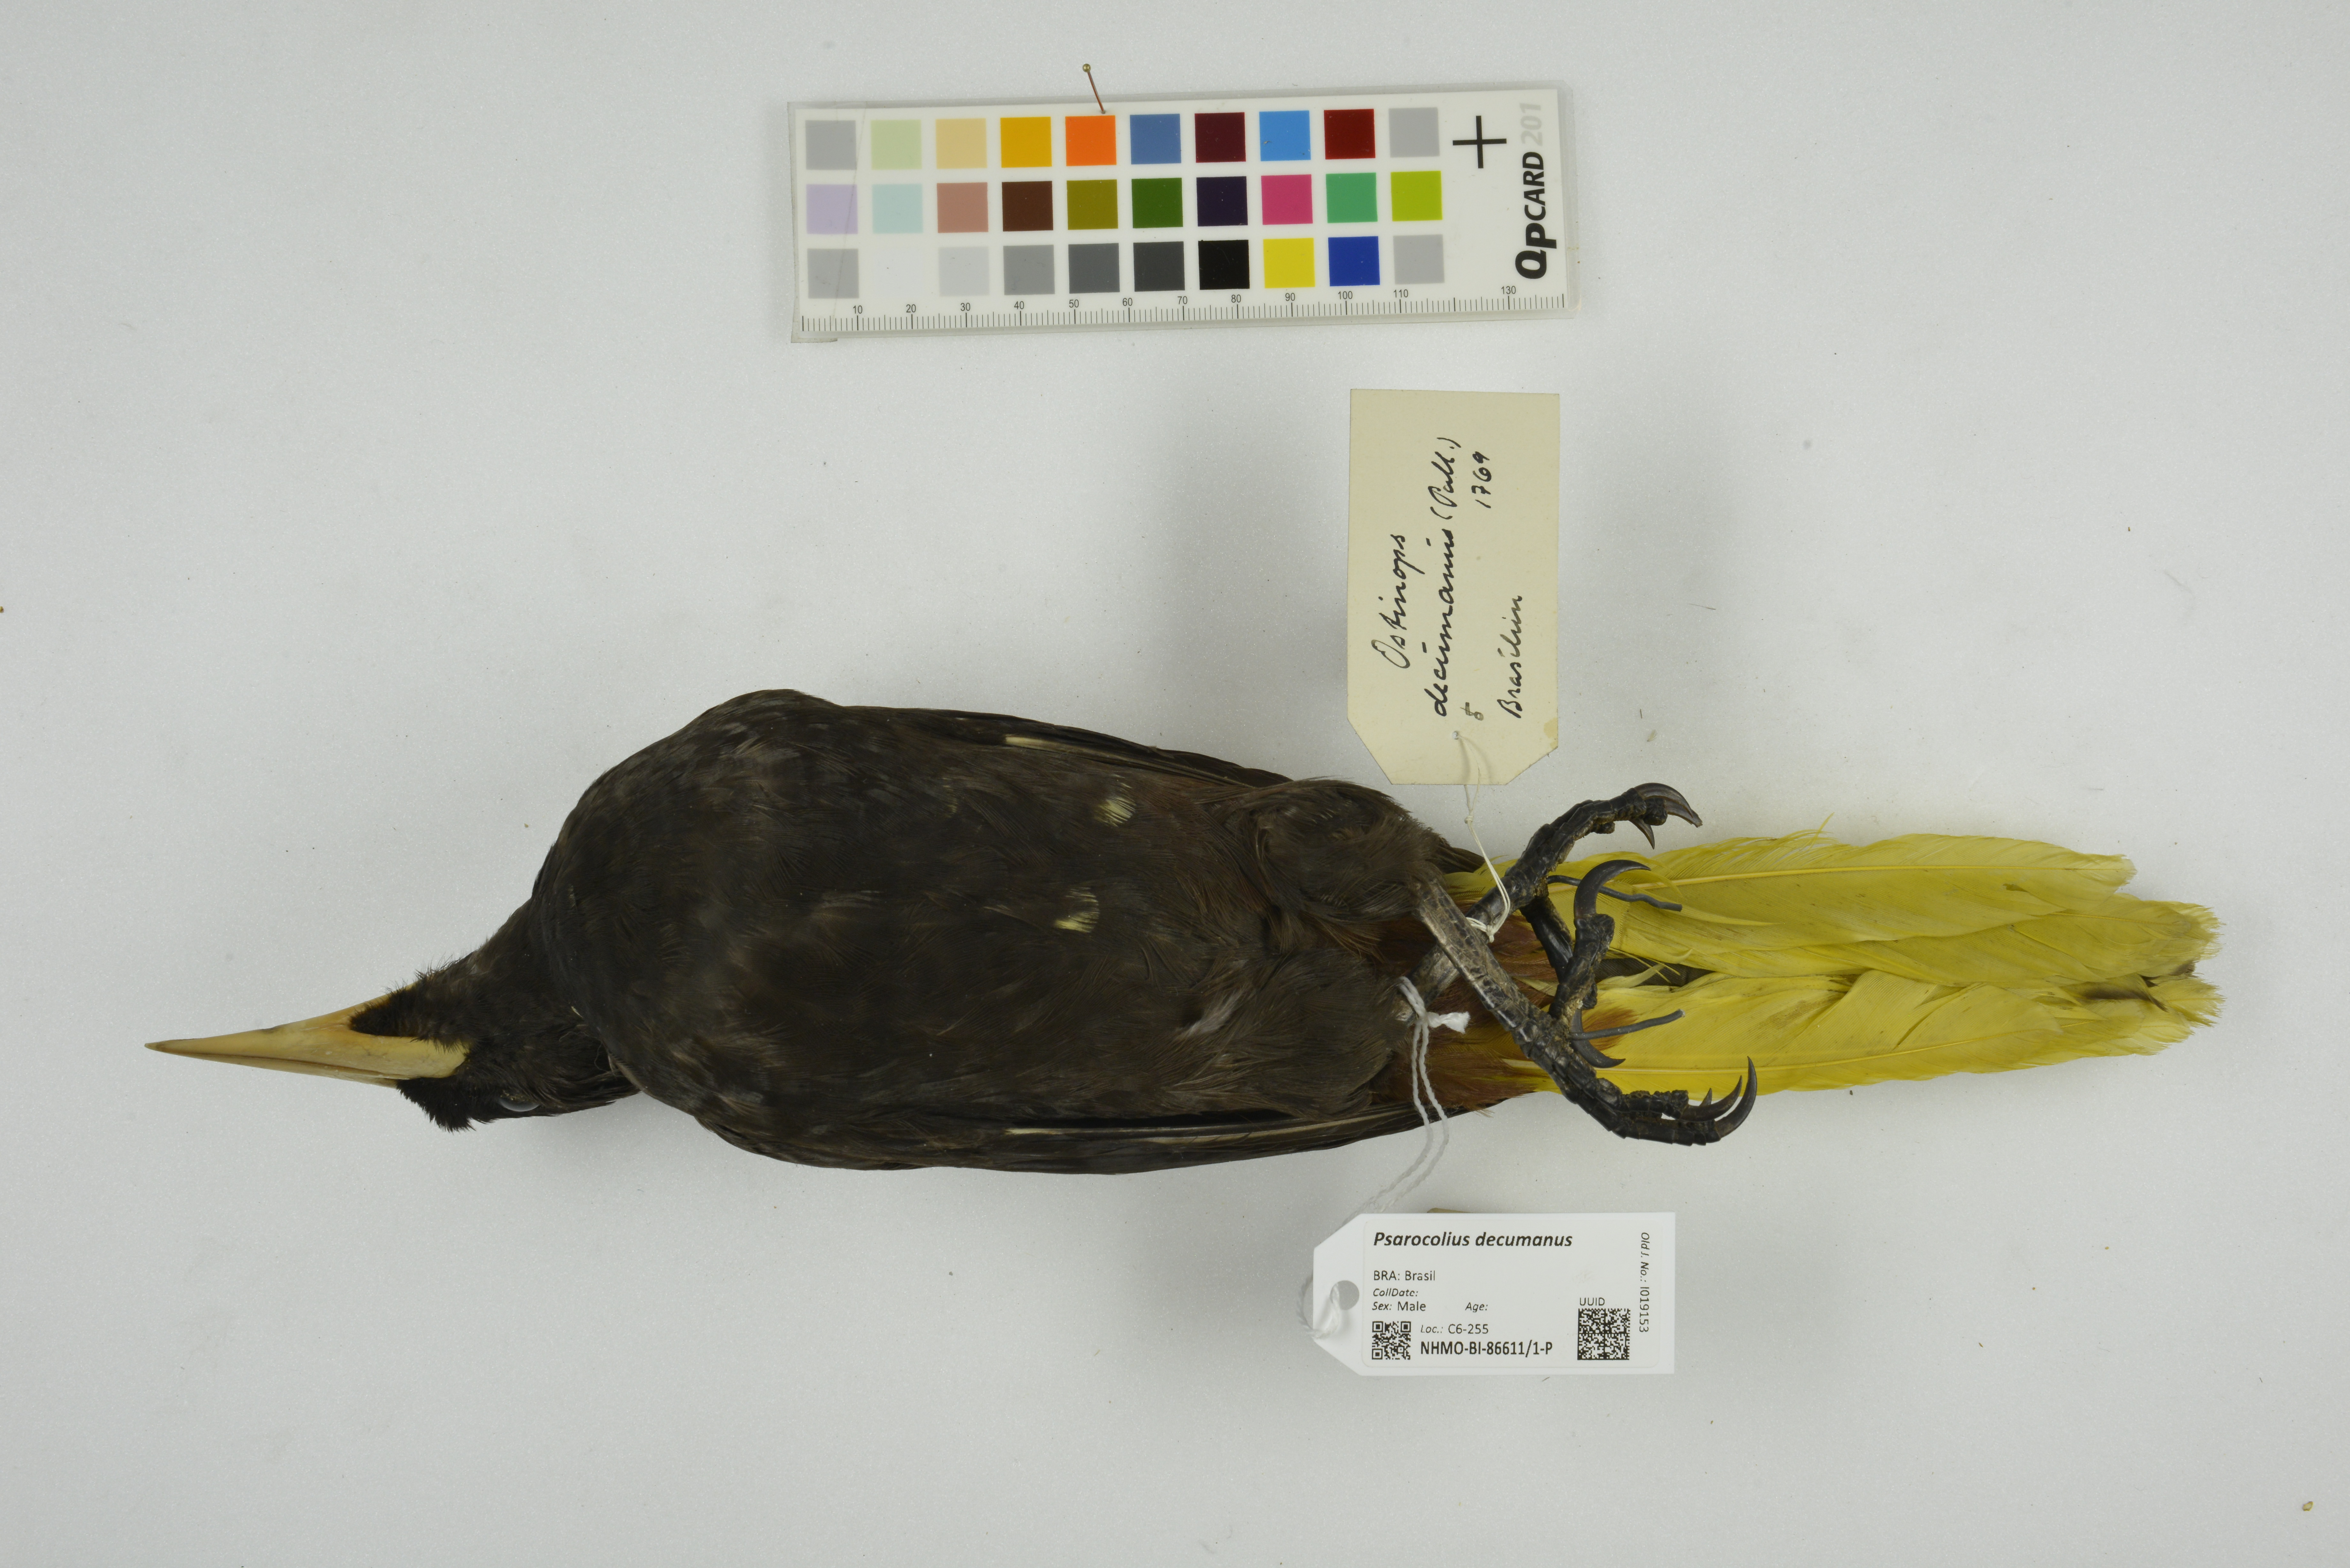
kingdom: Animalia
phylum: Chordata
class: Aves
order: Passeriformes
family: Icteridae
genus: Psarocolius
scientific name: Psarocolius decumanus
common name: Crested oropendola
